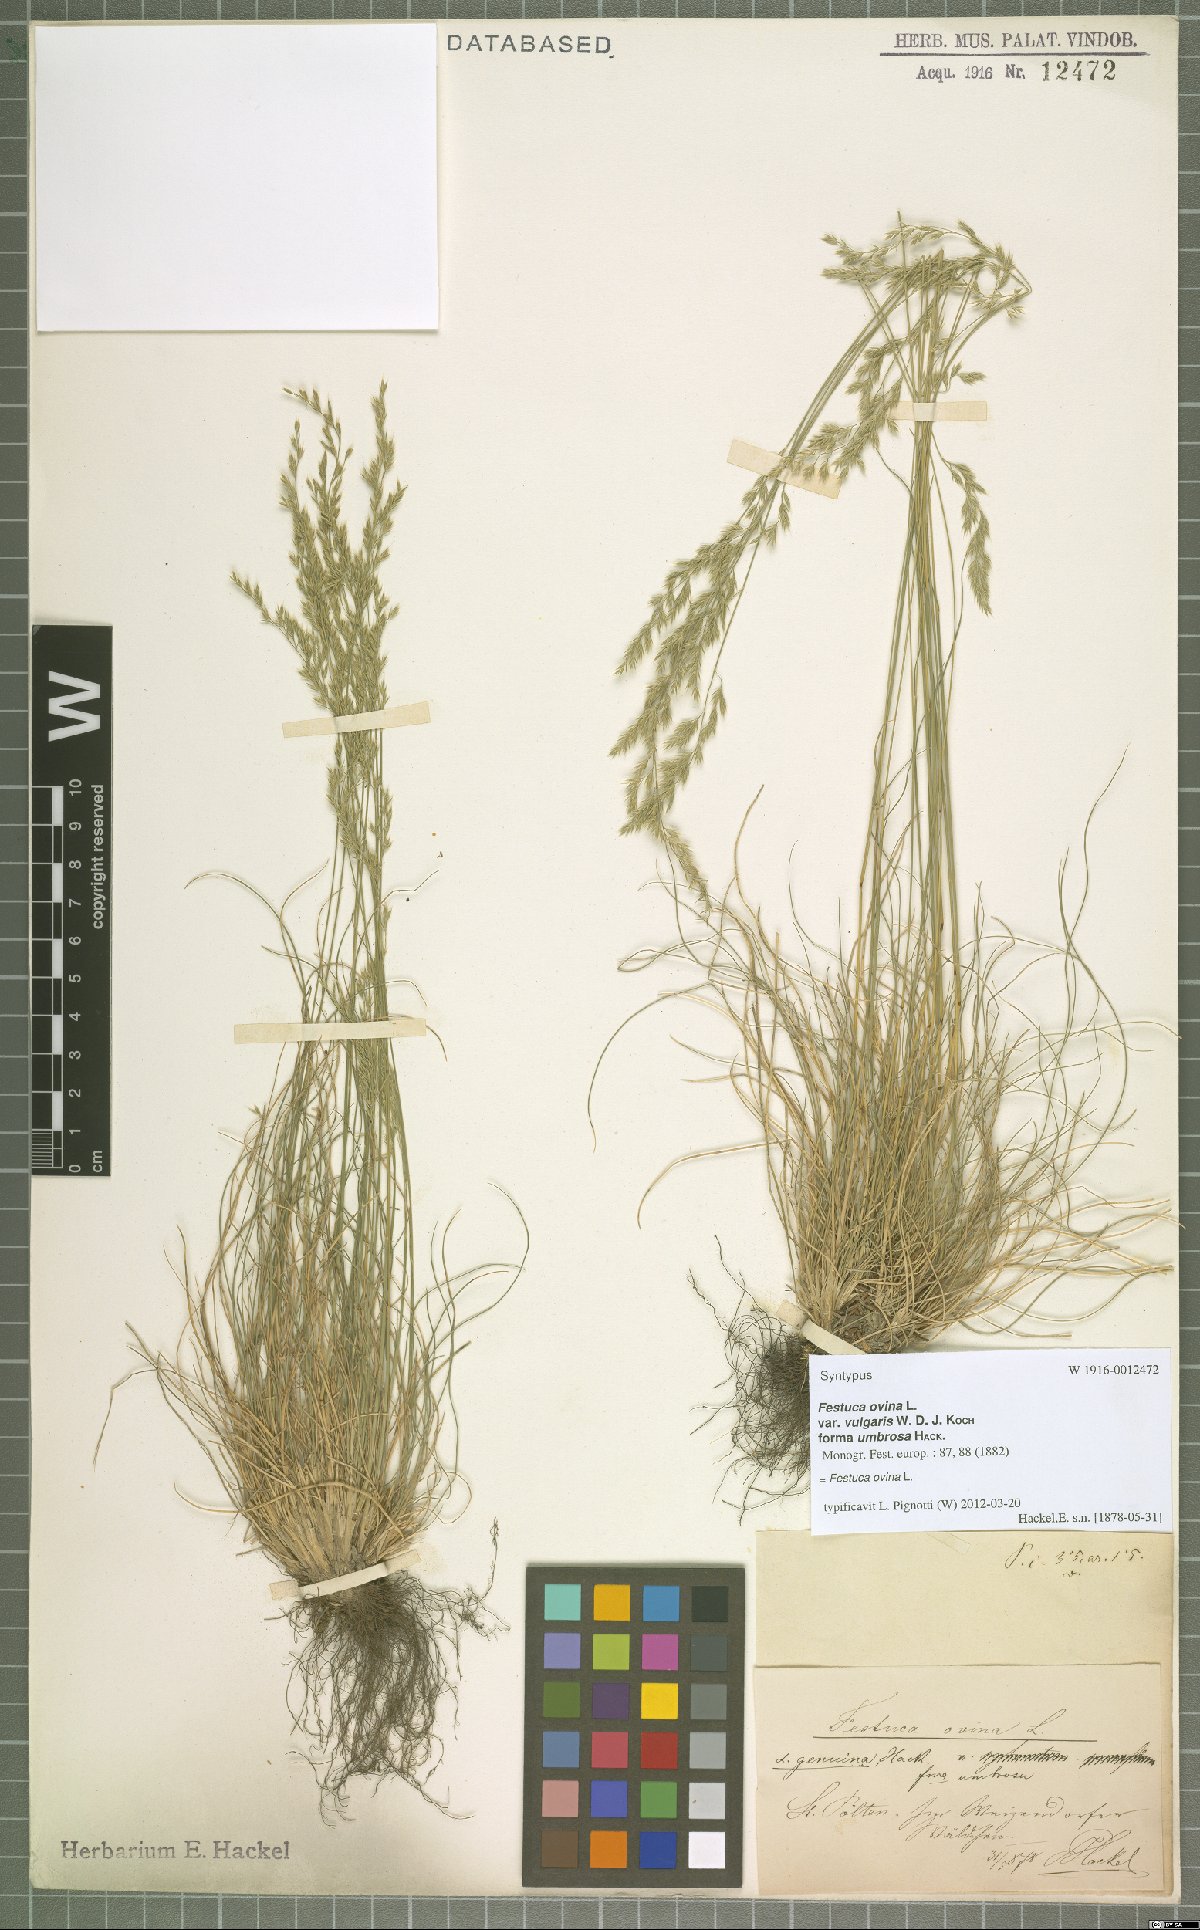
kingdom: Plantae
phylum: Tracheophyta
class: Liliopsida
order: Poales
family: Poaceae
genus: Festuca
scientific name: Festuca ovina
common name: Sheep fescue
